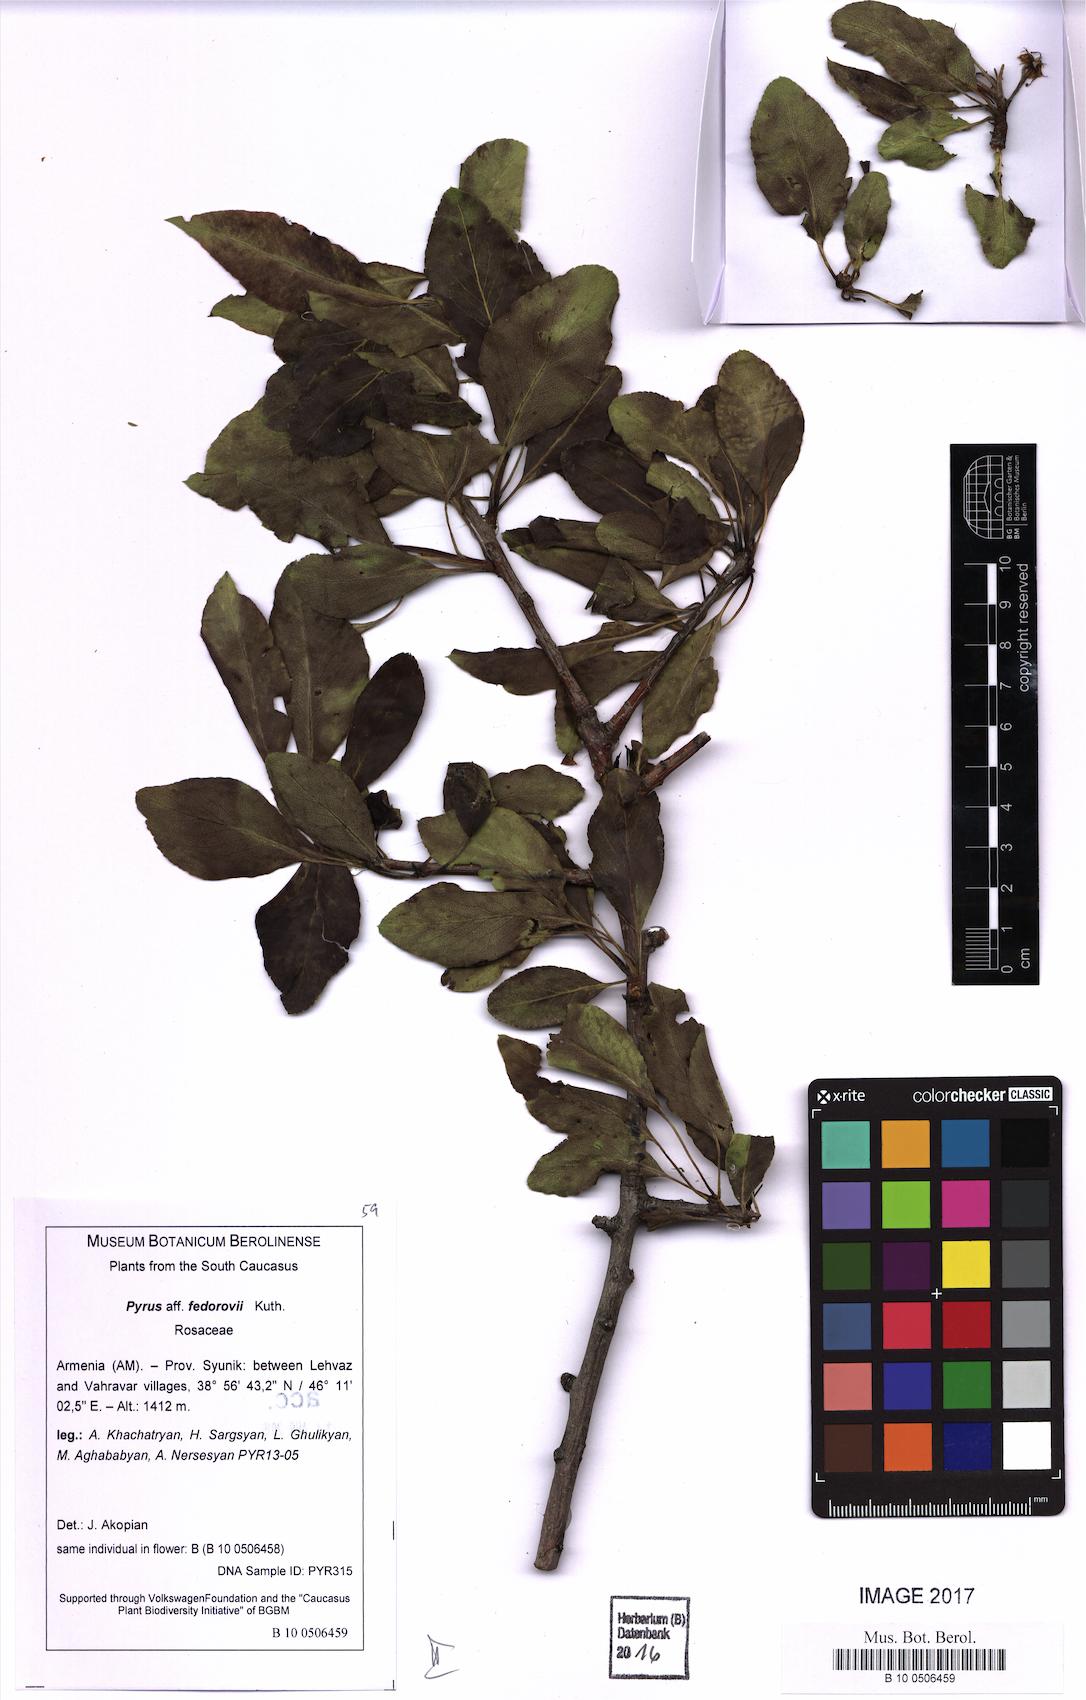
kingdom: Plantae
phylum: Tracheophyta
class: Magnoliopsida
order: Rosales
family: Rosaceae
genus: Pyrus
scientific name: Pyrus fedorovii
